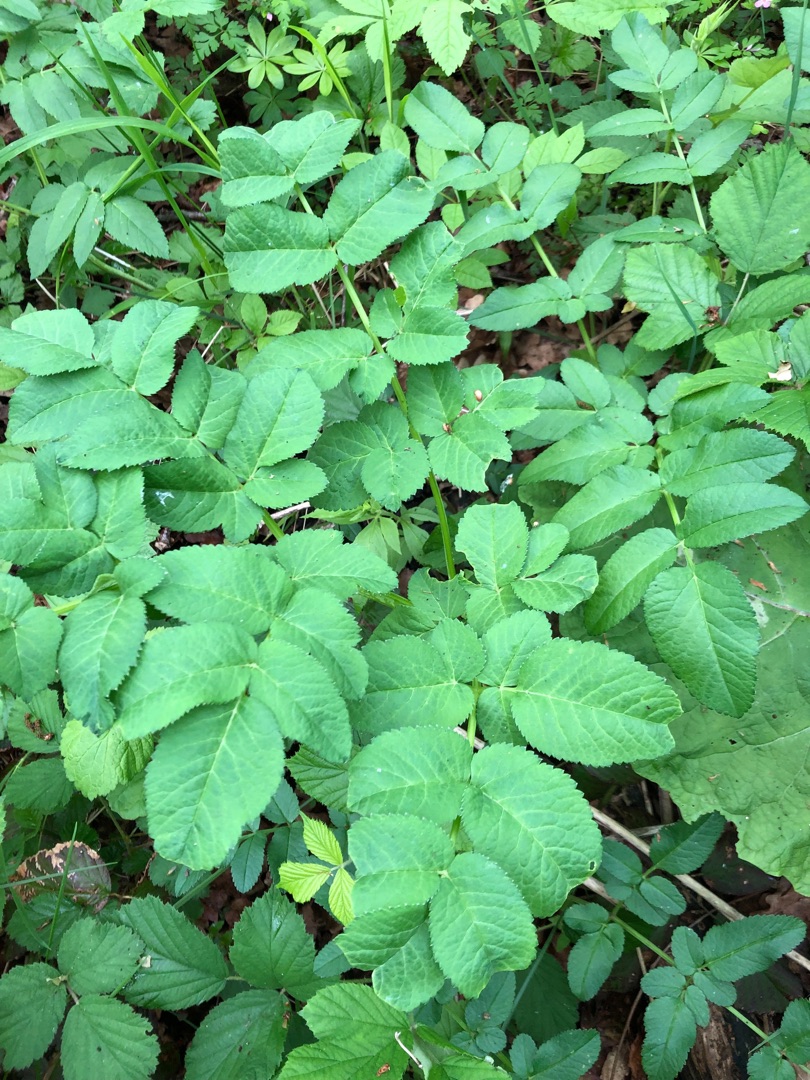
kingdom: Plantae
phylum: Tracheophyta
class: Magnoliopsida
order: Apiales
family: Apiaceae
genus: Angelica
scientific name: Angelica sylvestris
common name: Angelik
